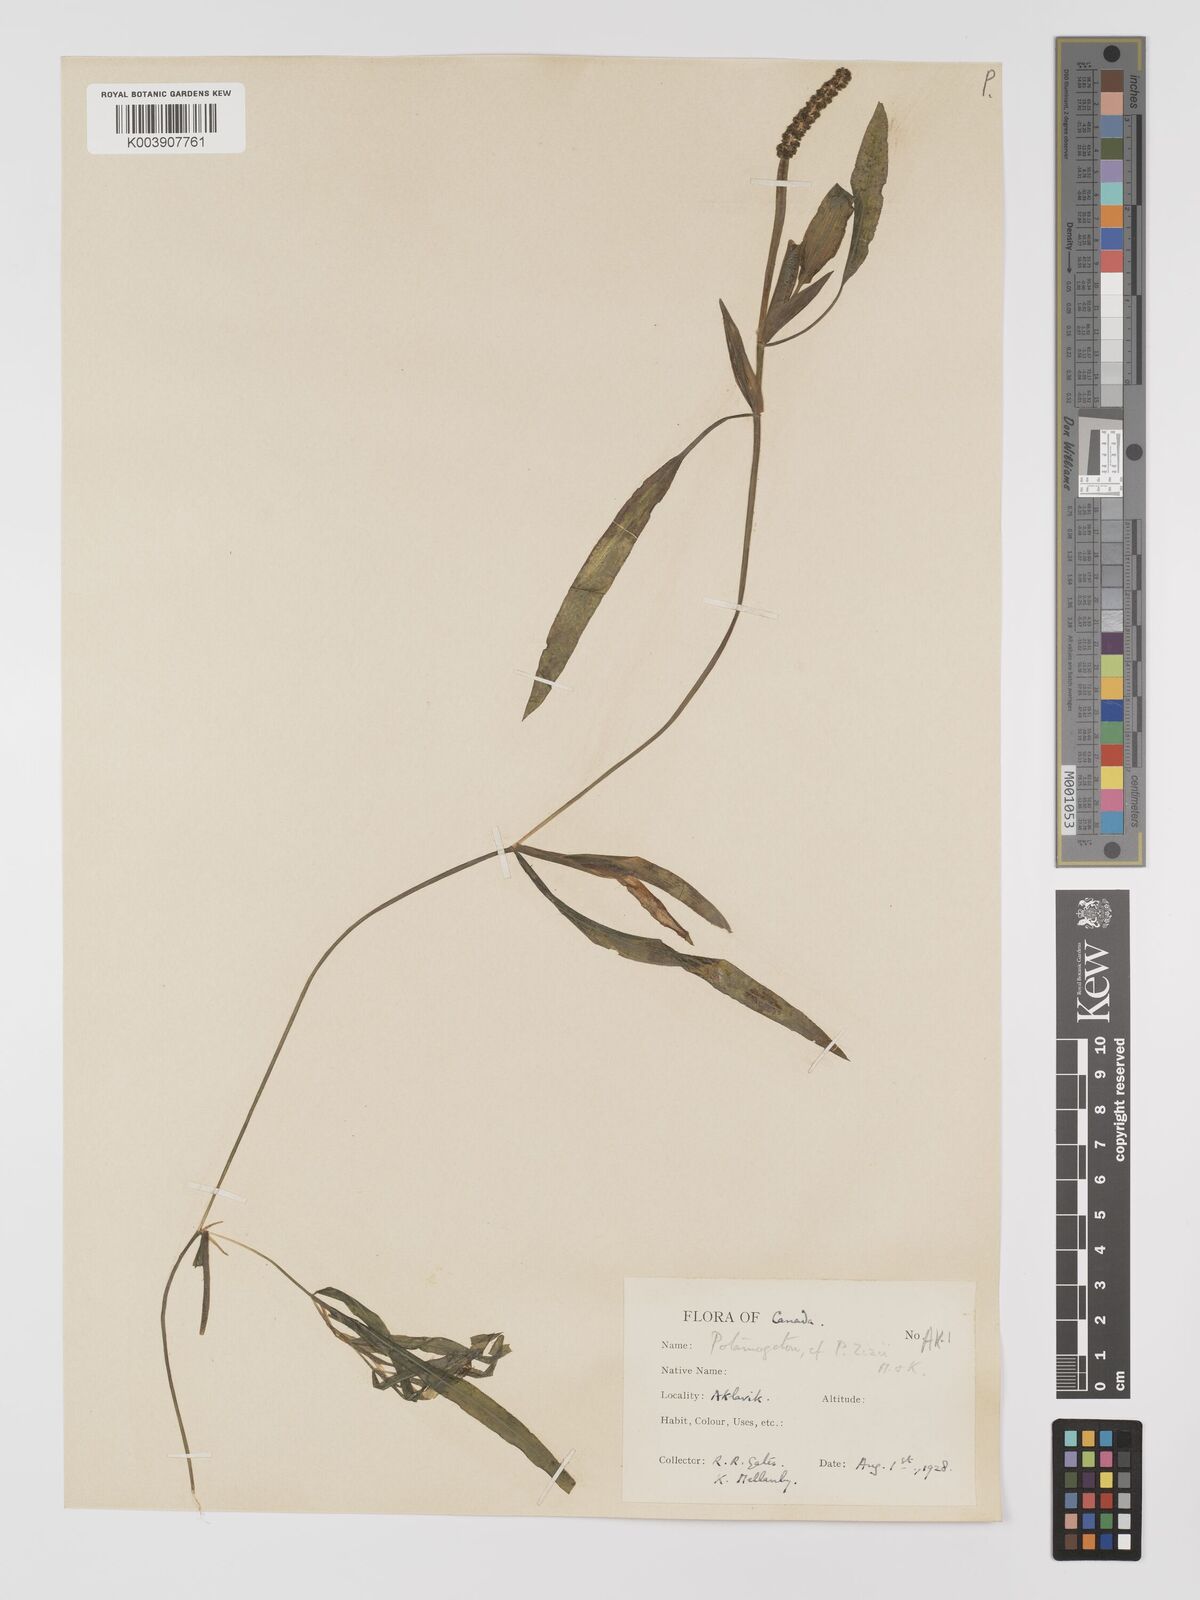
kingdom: Plantae
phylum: Tracheophyta
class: Liliopsida
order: Alismatales
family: Potamogetonaceae
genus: Potamogeton
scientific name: Potamogeton gramineus
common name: Various-leaved pondweed
